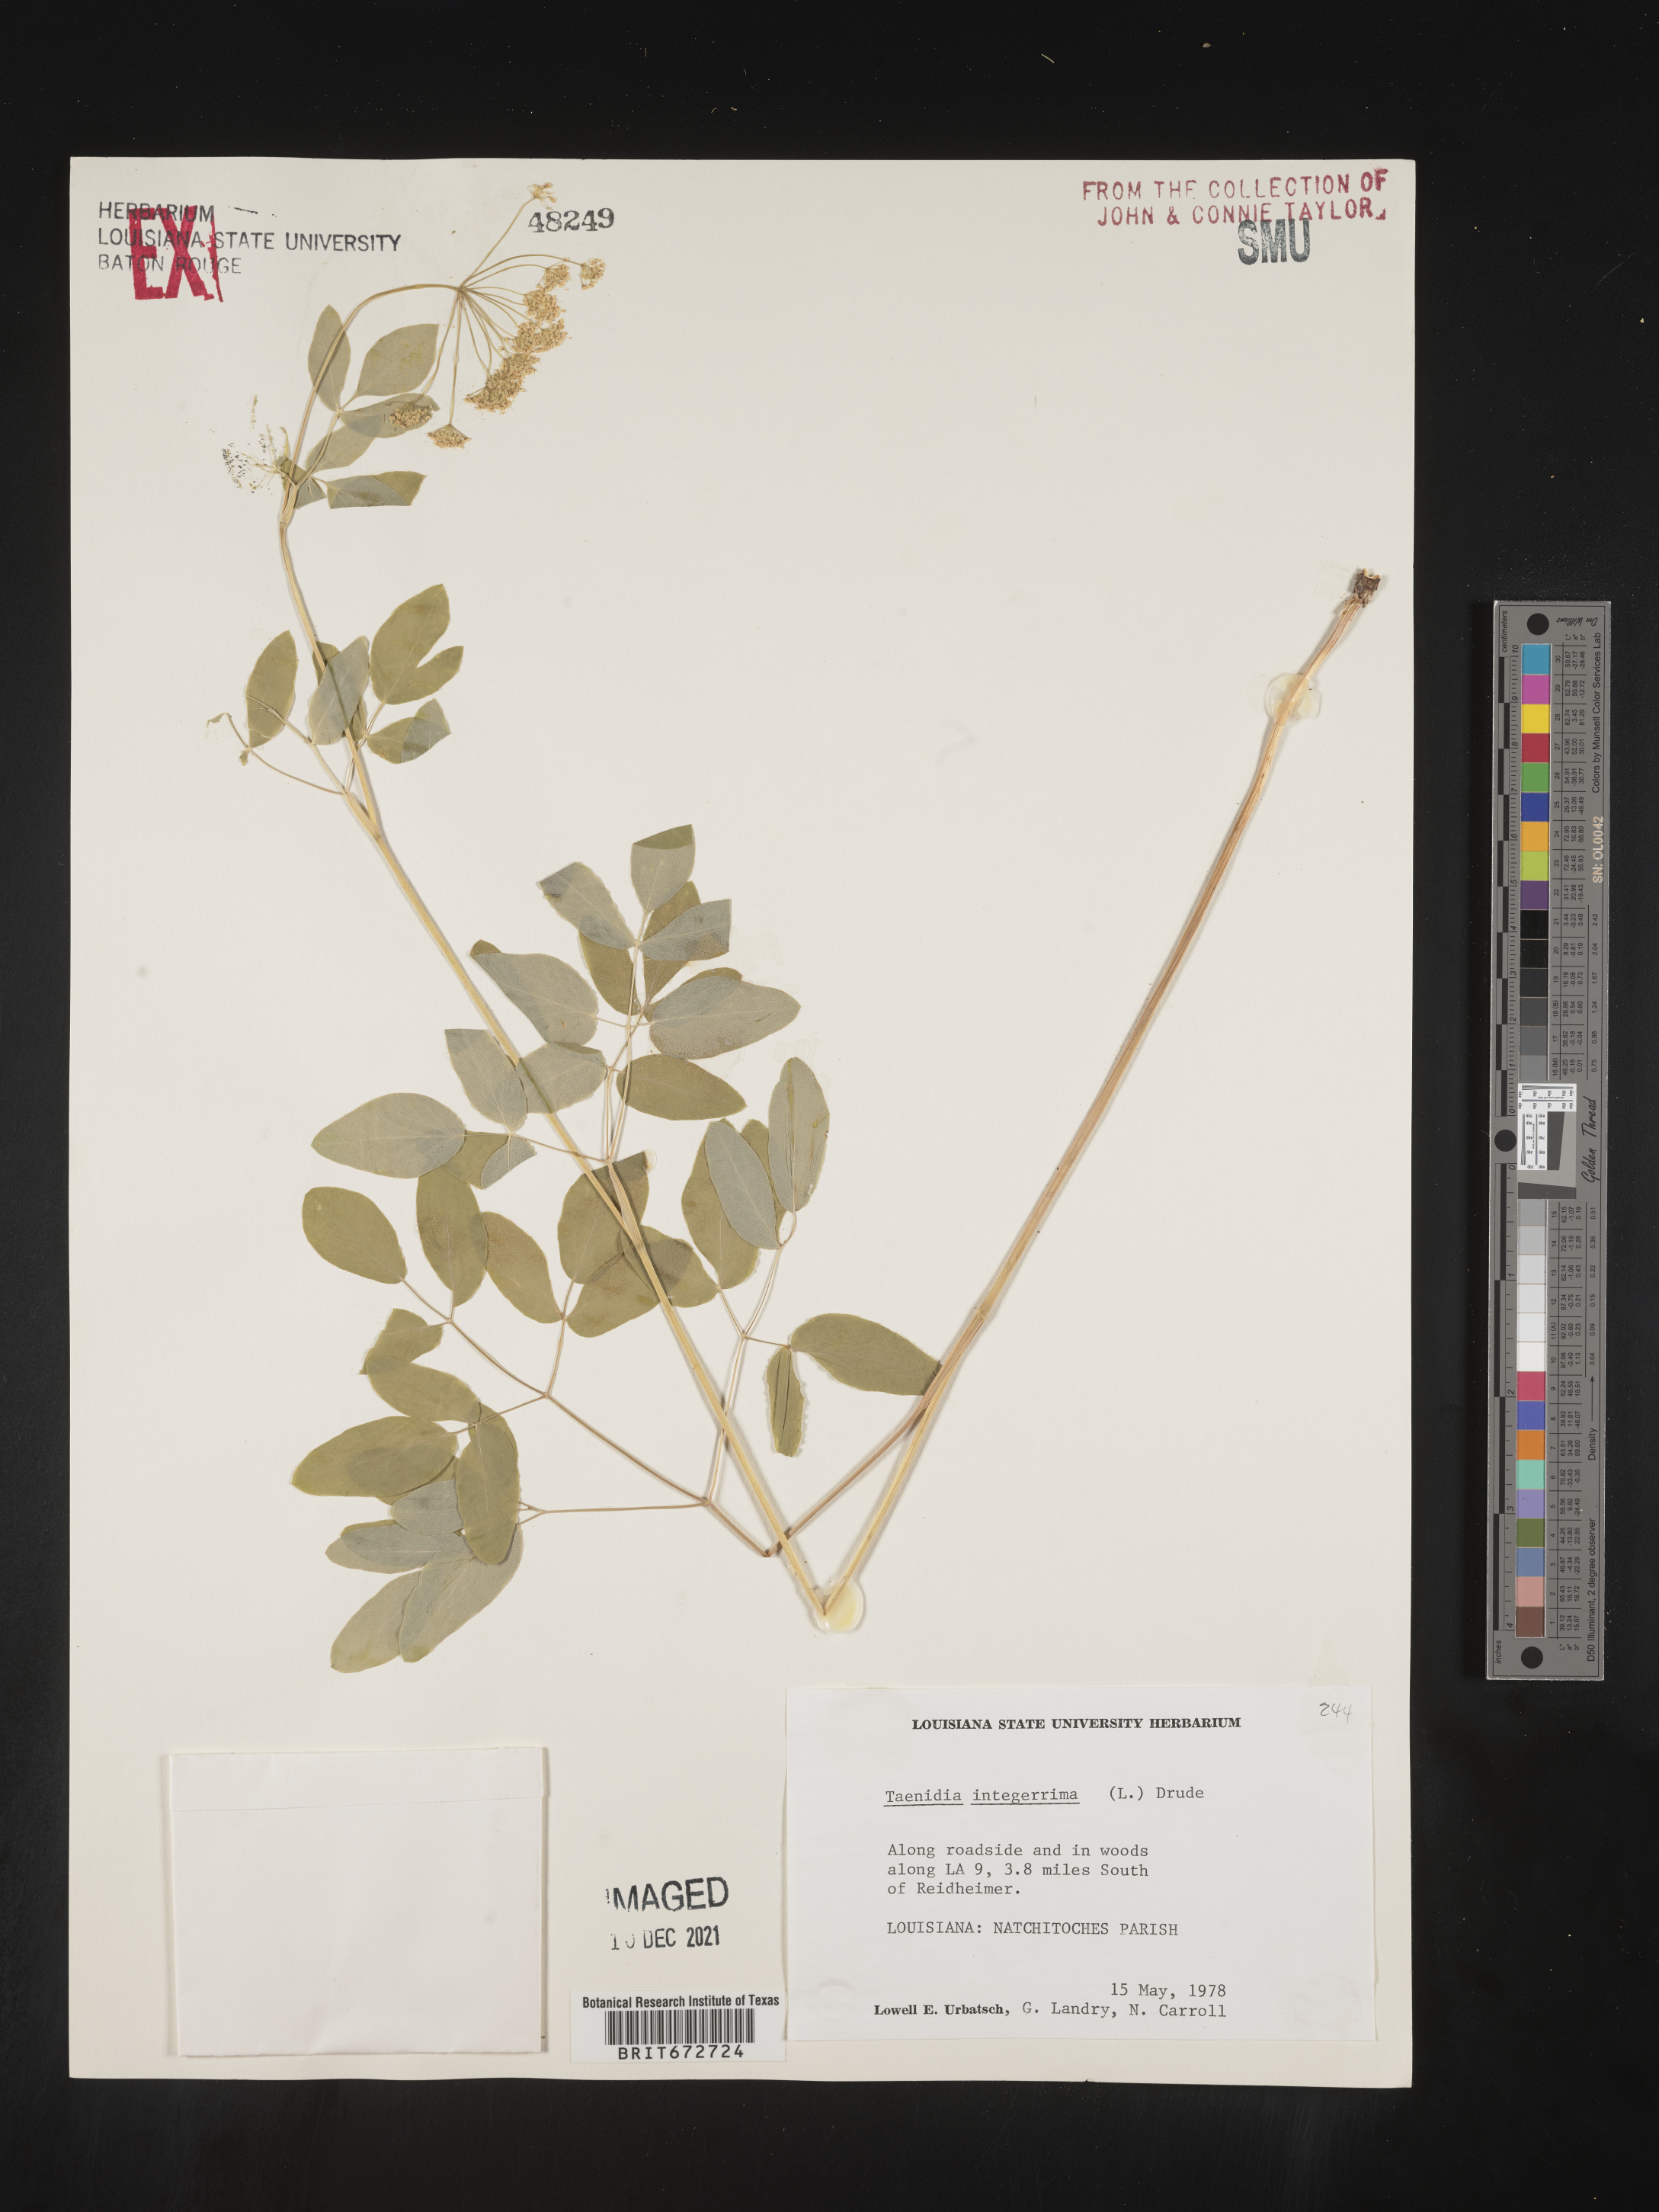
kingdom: Plantae
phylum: Tracheophyta
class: Magnoliopsida
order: Apiales
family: Apiaceae
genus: Taenidia
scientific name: Taenidia
